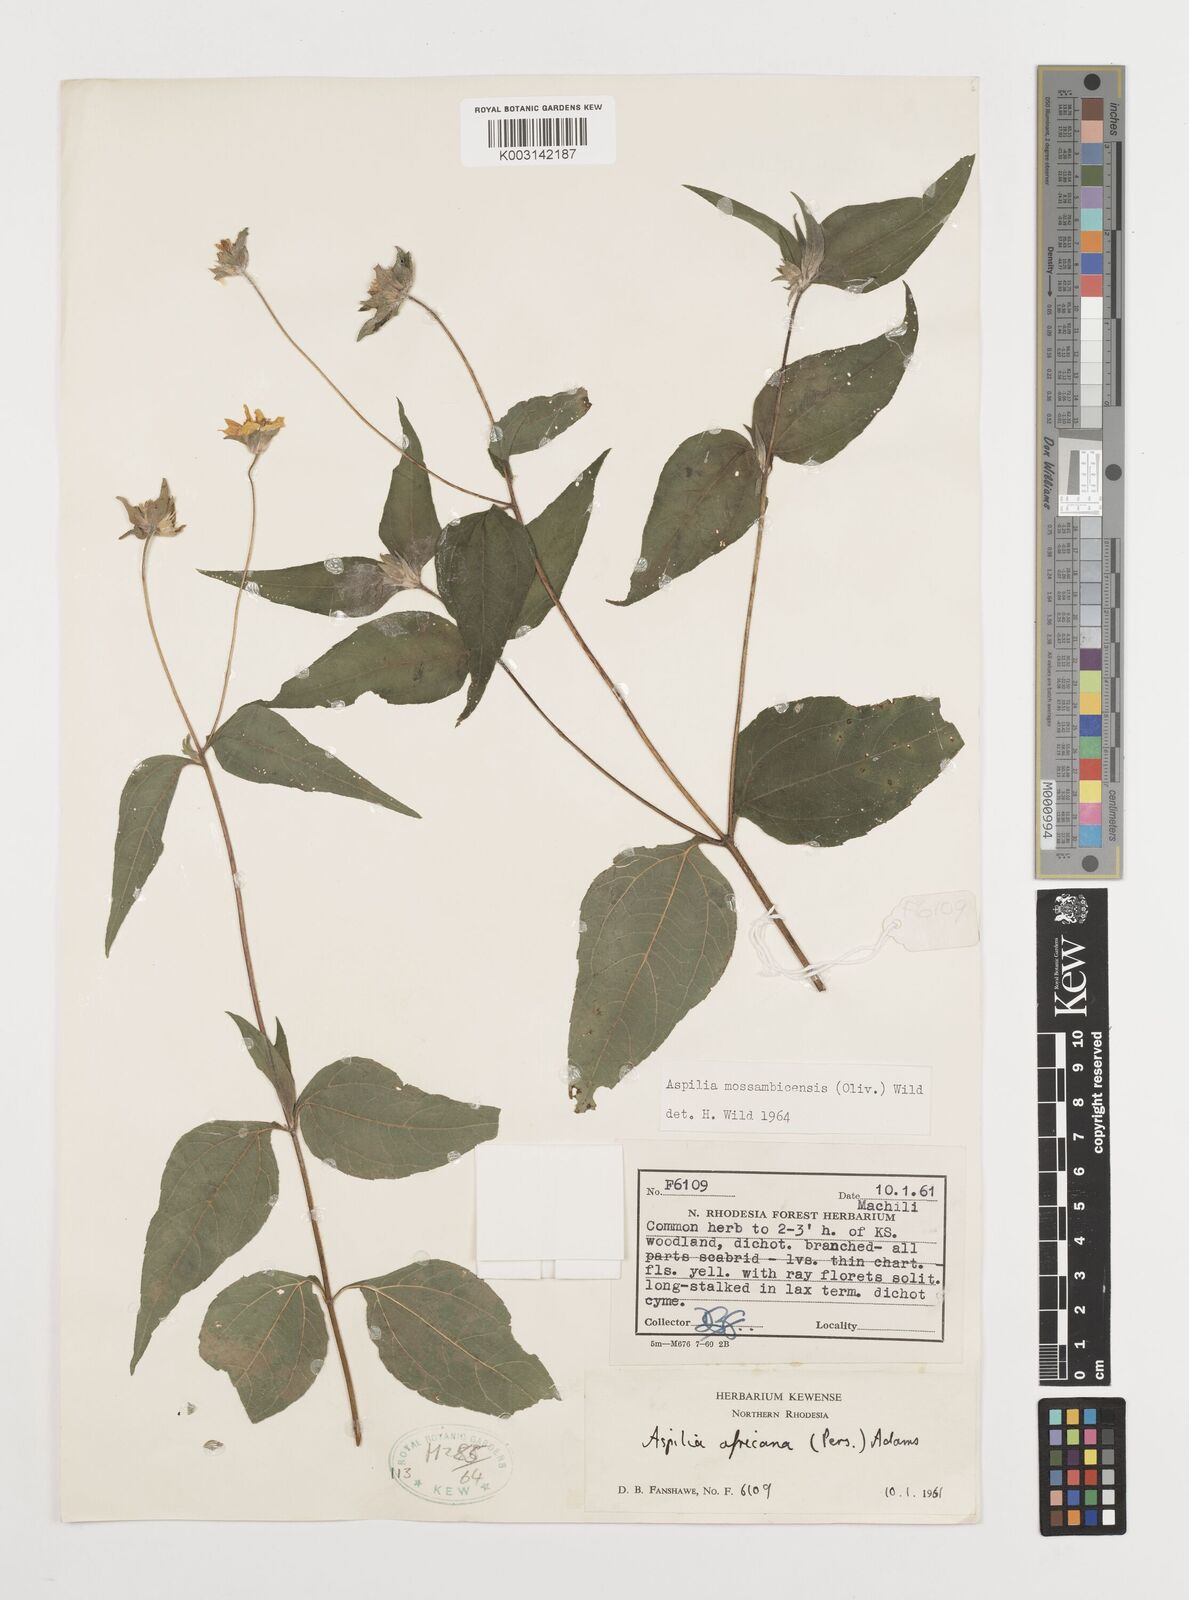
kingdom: Plantae
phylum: Tracheophyta
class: Magnoliopsida
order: Asterales
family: Asteraceae
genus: Aspilia
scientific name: Aspilia mossambicensis
